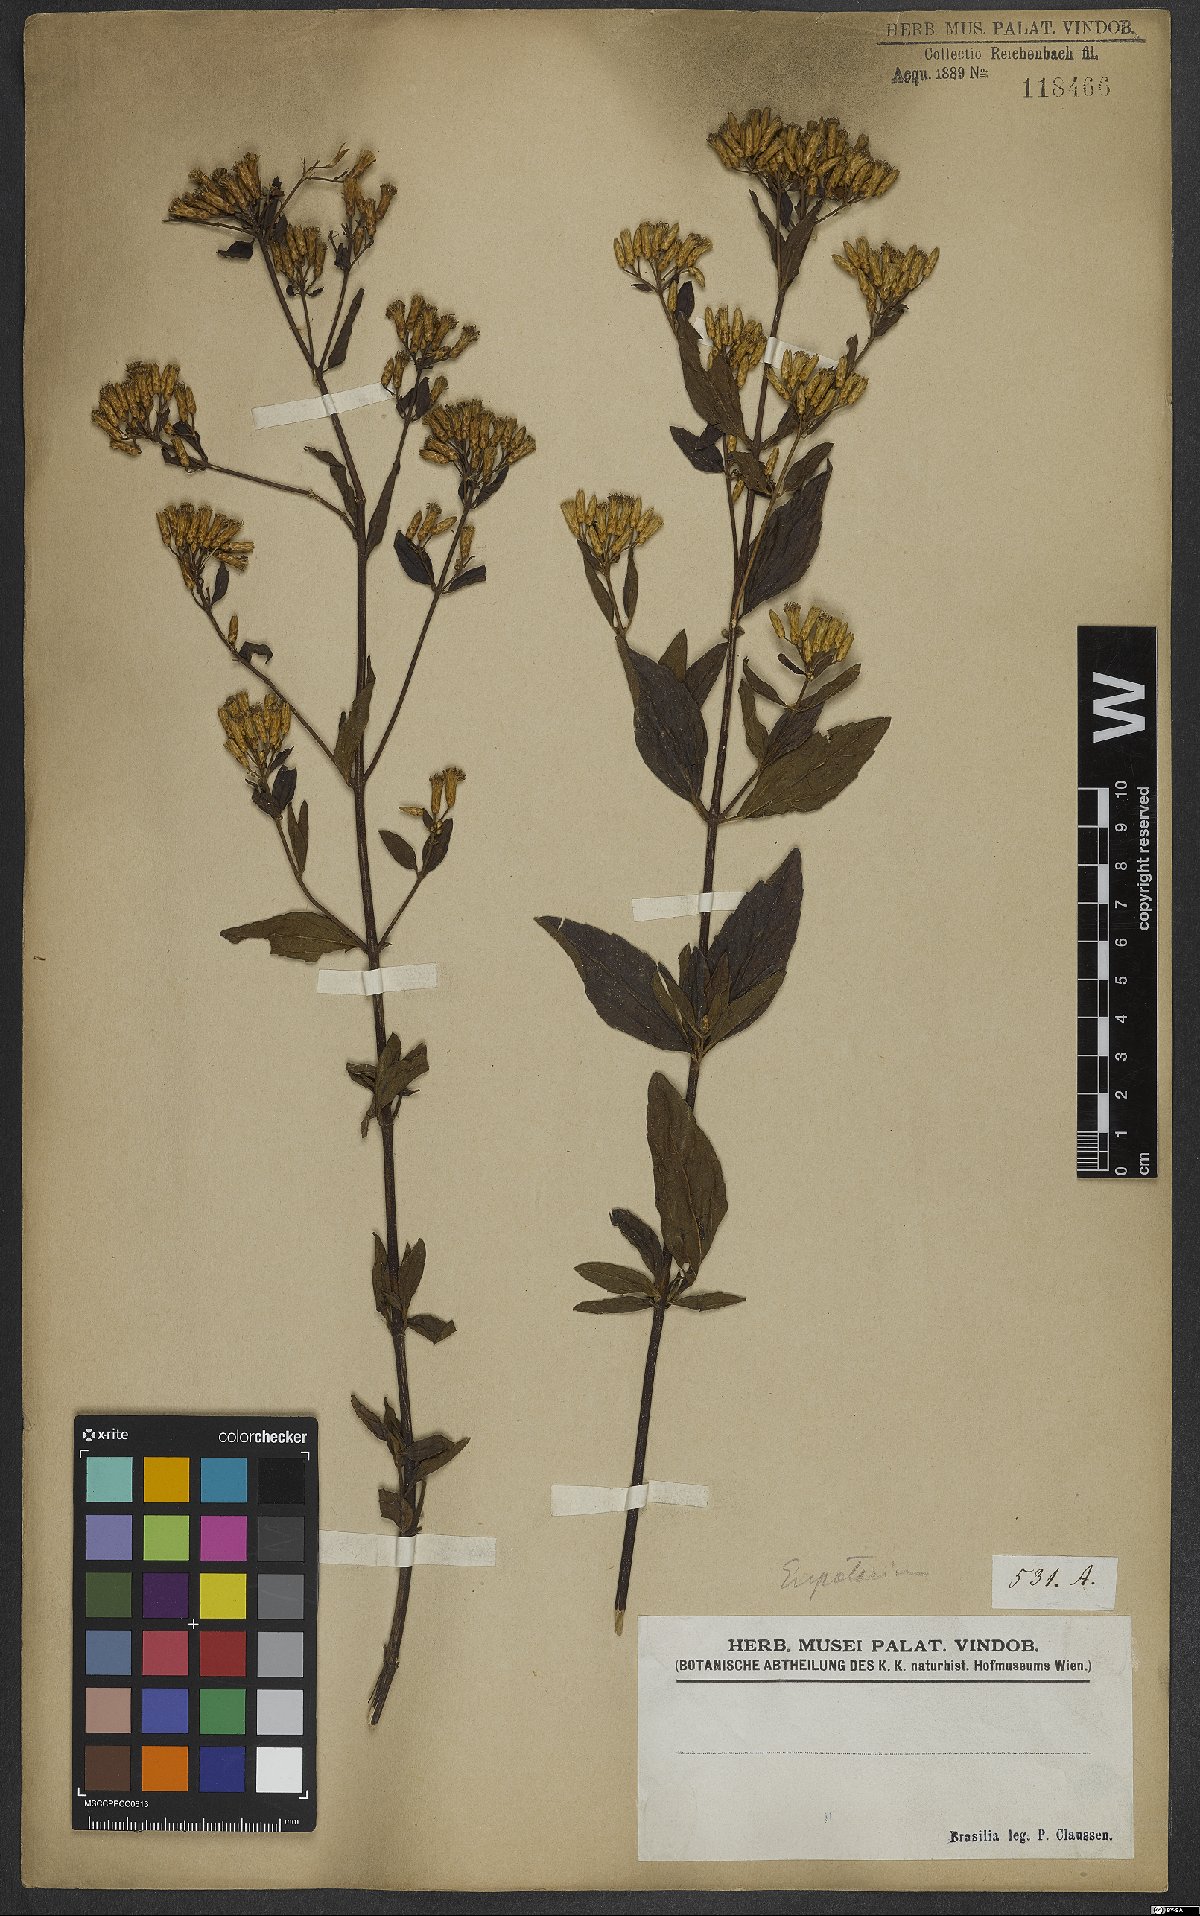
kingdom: Plantae
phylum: Tracheophyta
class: Magnoliopsida
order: Asterales
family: Asteraceae
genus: Eupatorium
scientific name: Eupatorium
